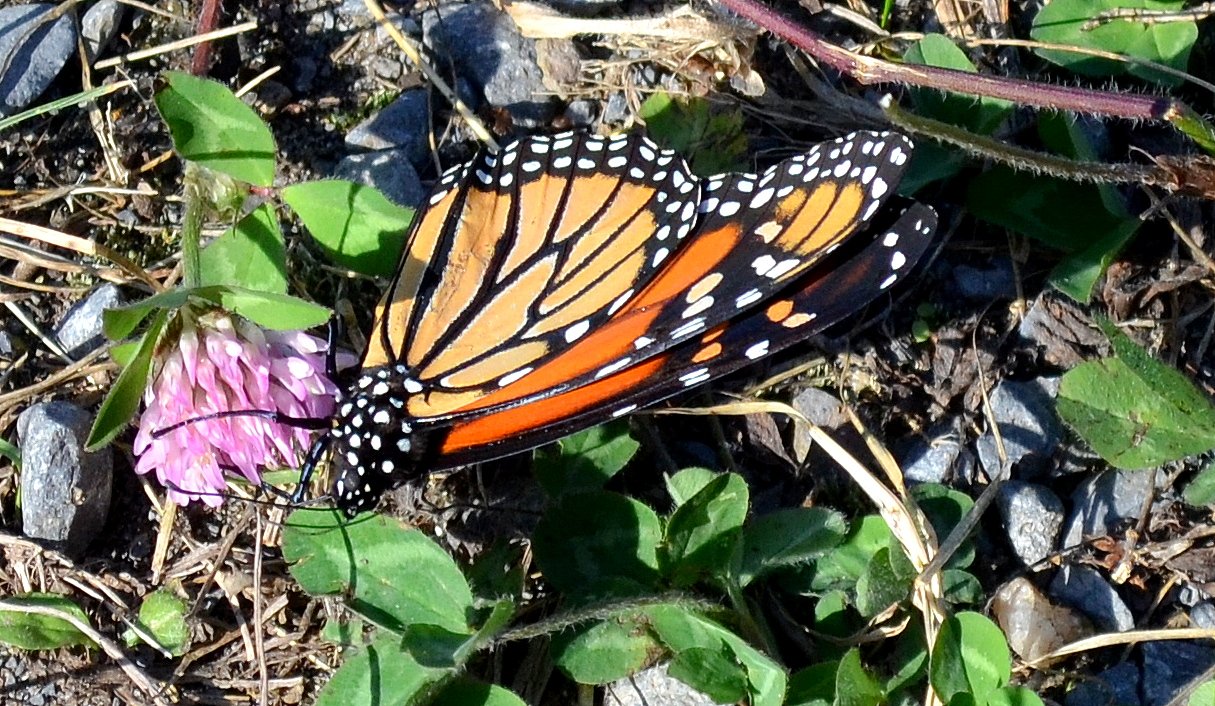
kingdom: Animalia
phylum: Arthropoda
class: Insecta
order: Lepidoptera
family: Nymphalidae
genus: Danaus
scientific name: Danaus plexippus
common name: Monarch
